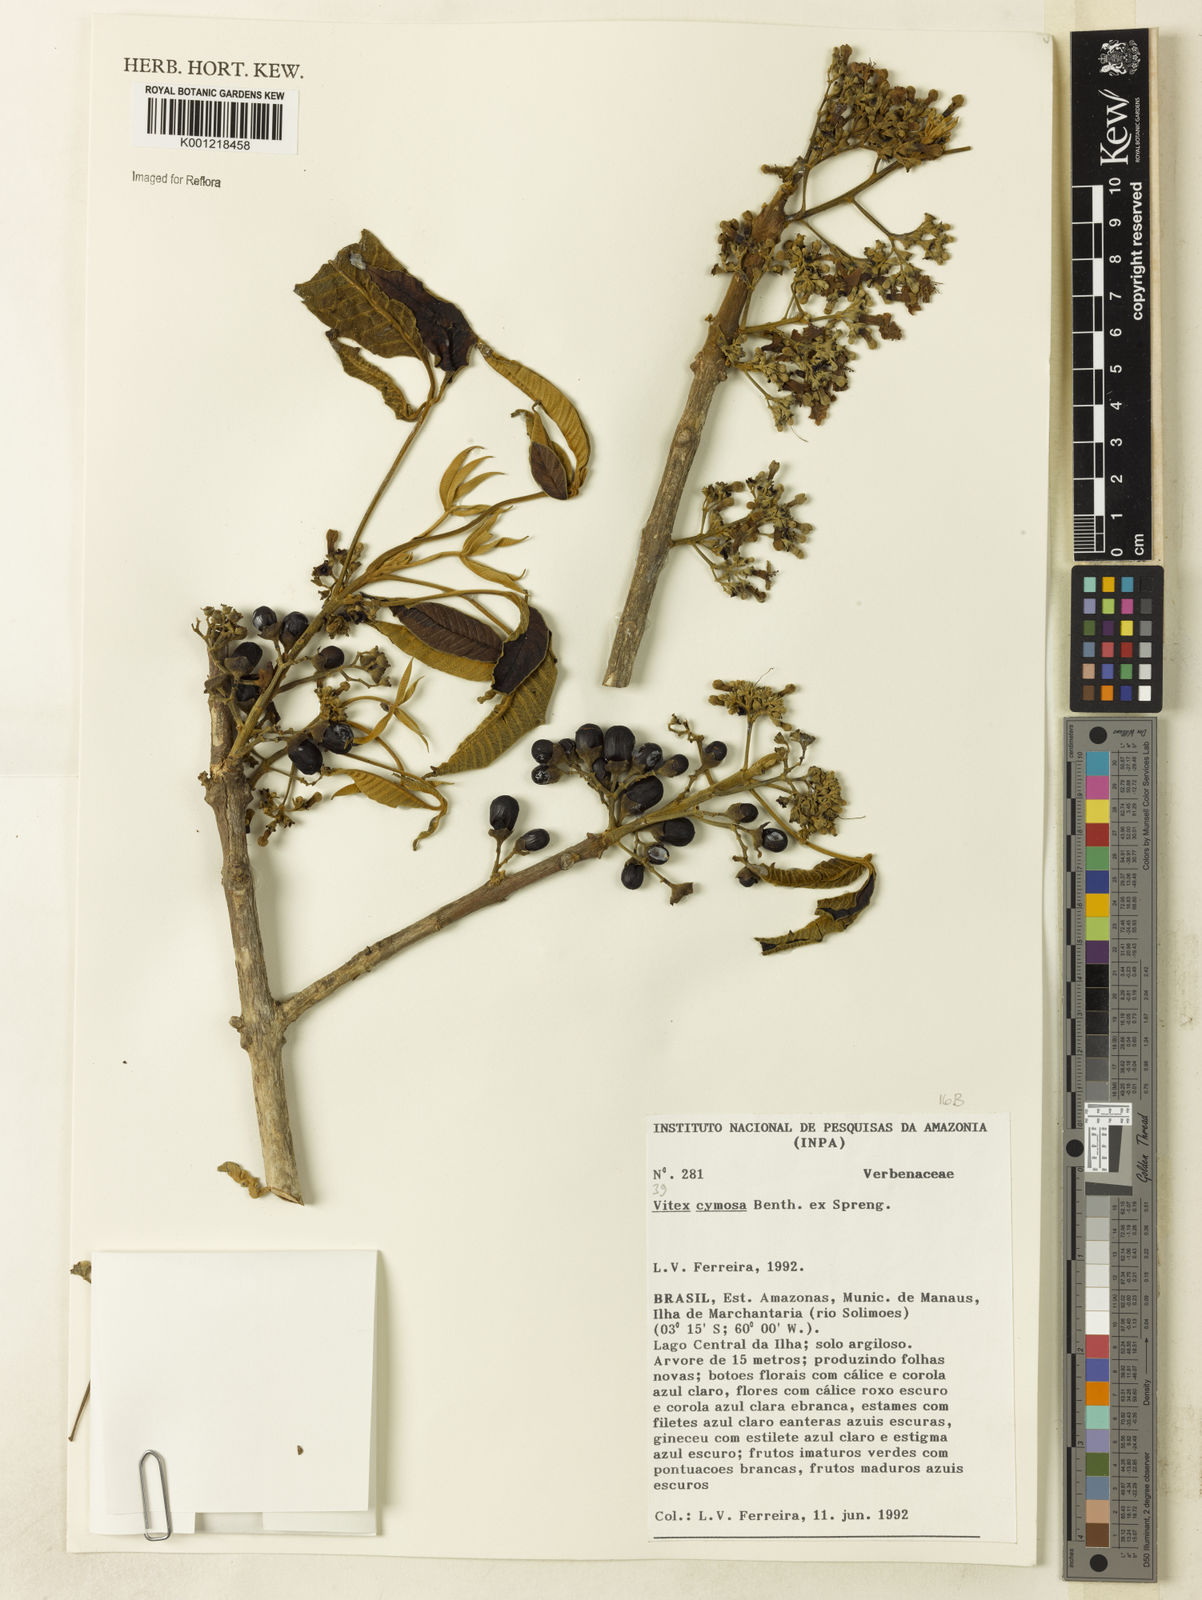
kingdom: Plantae
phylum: Tracheophyta
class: Magnoliopsida
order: Lamiales
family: Lamiaceae
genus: Vitex
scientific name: Vitex cymosa
